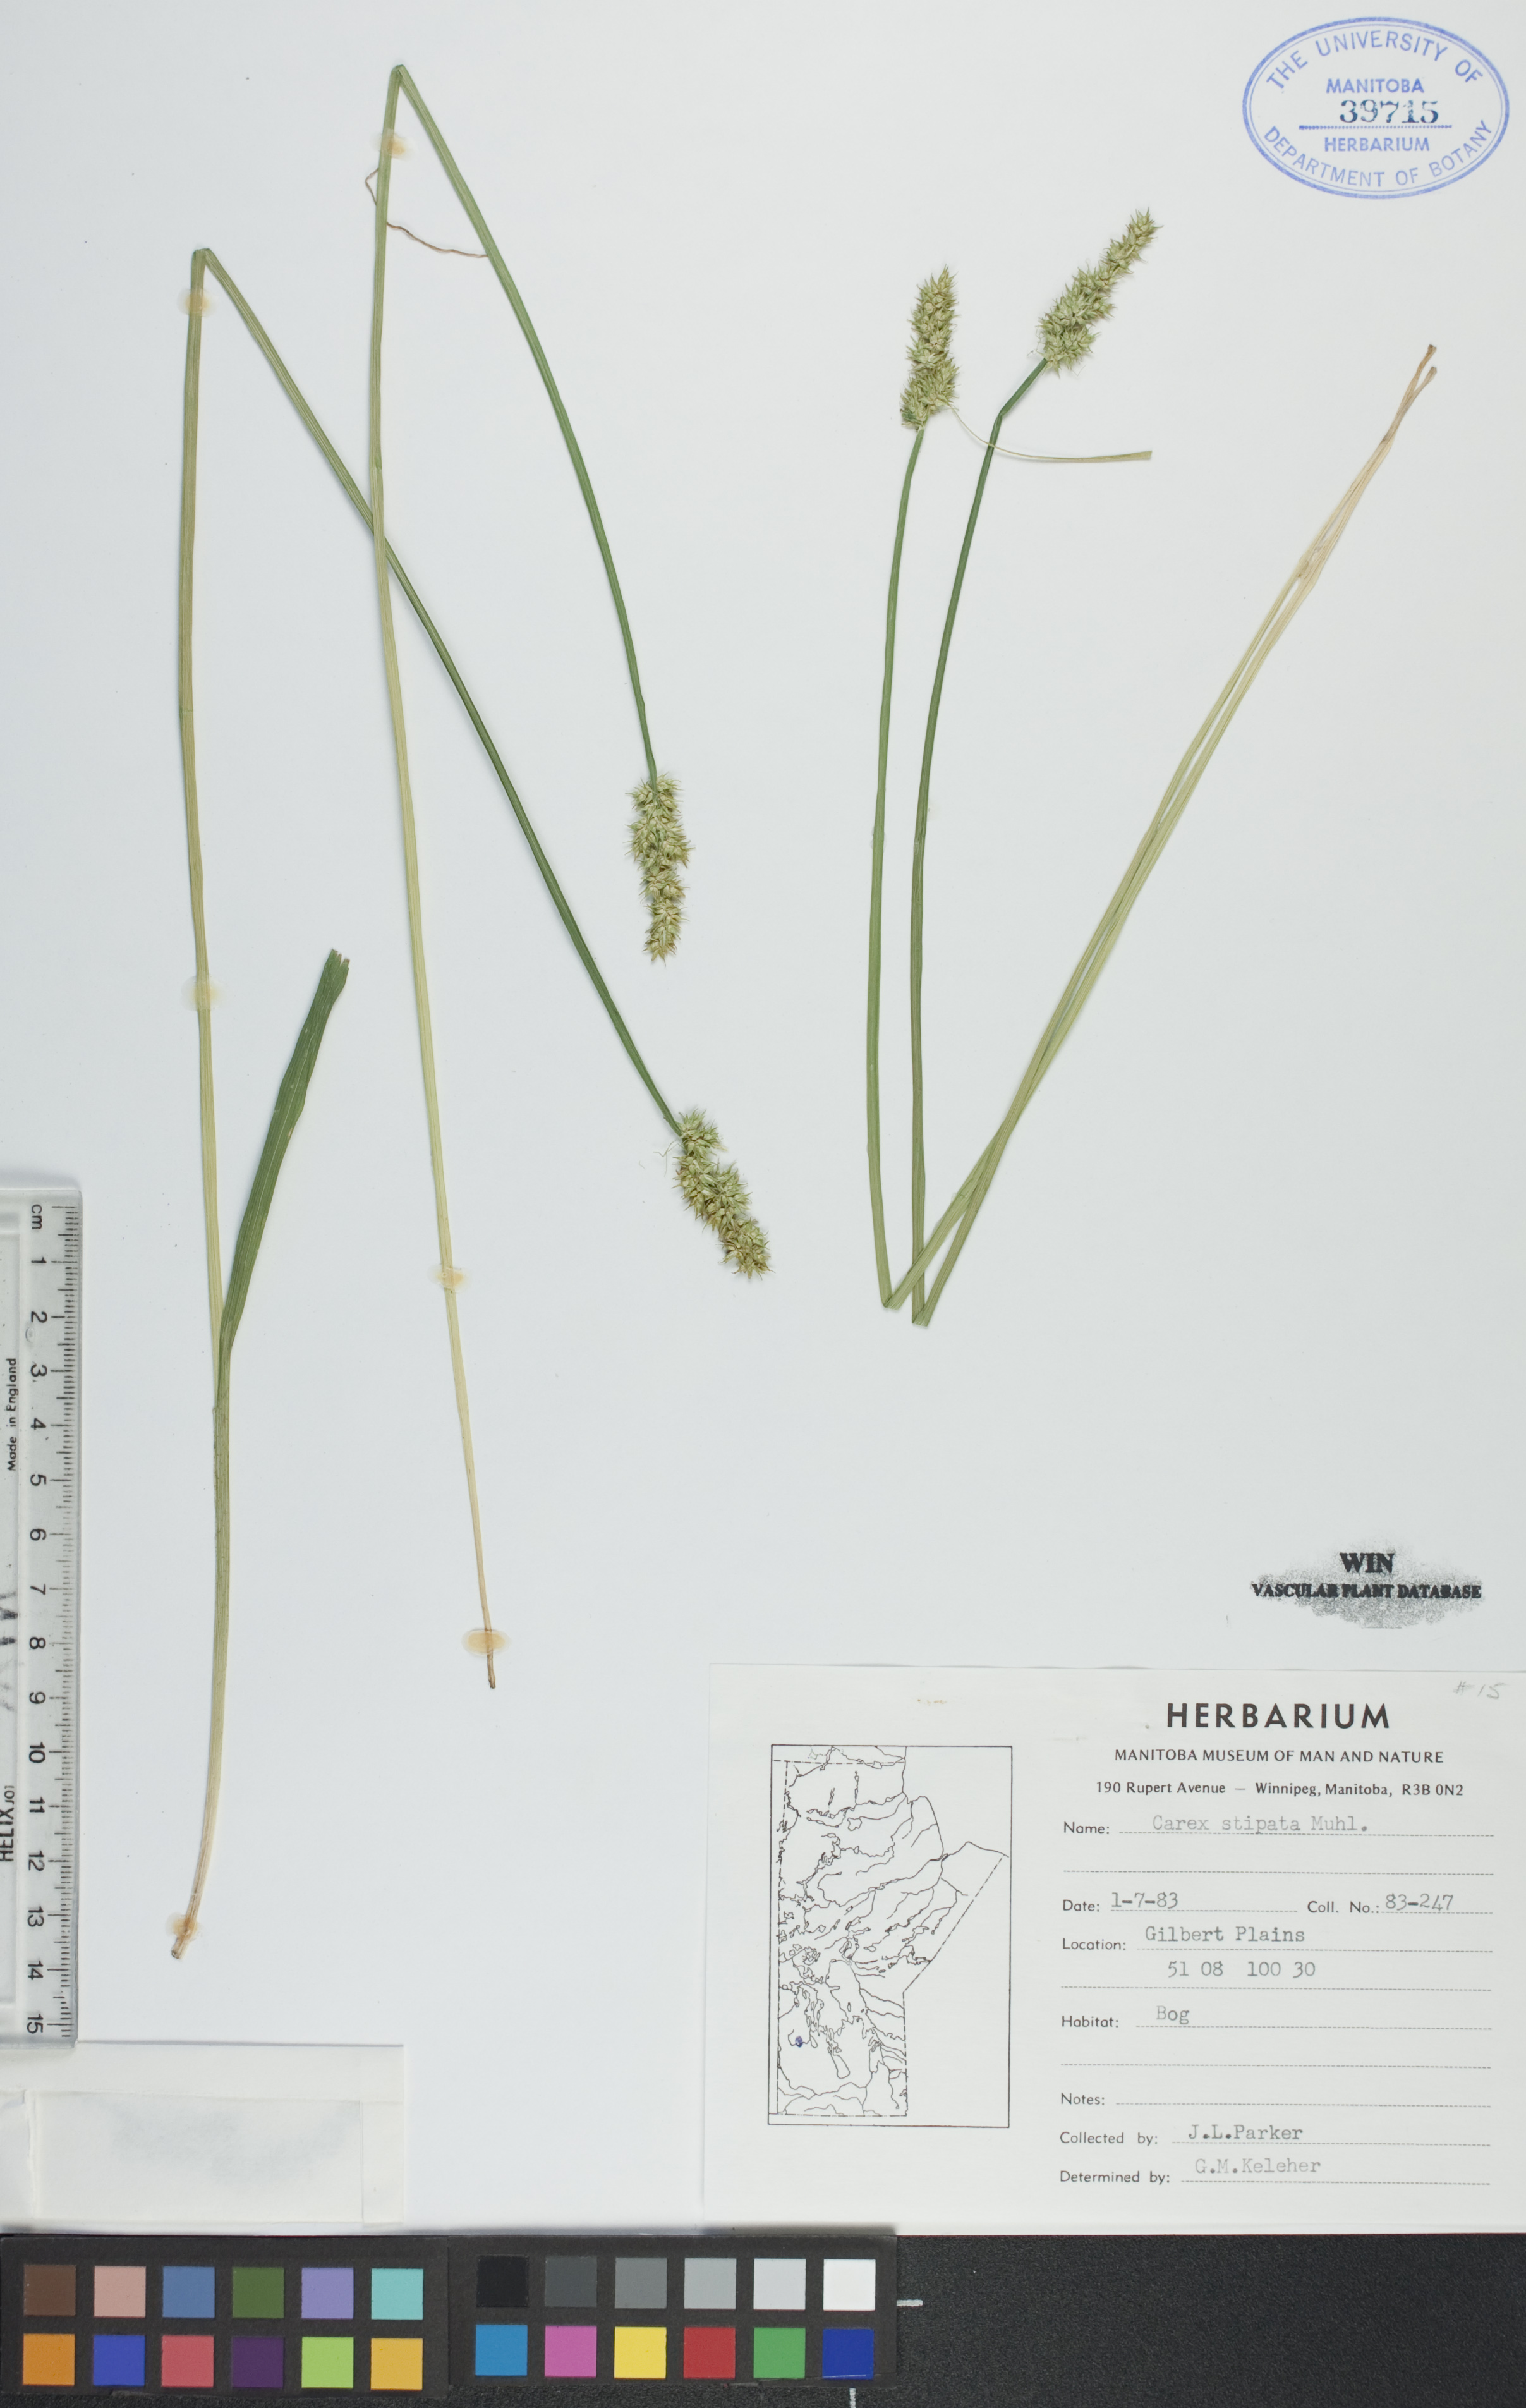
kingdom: Plantae
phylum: Tracheophyta
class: Liliopsida
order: Poales
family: Cyperaceae
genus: Carex
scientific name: Carex stipata
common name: Awl-fruited sedge
